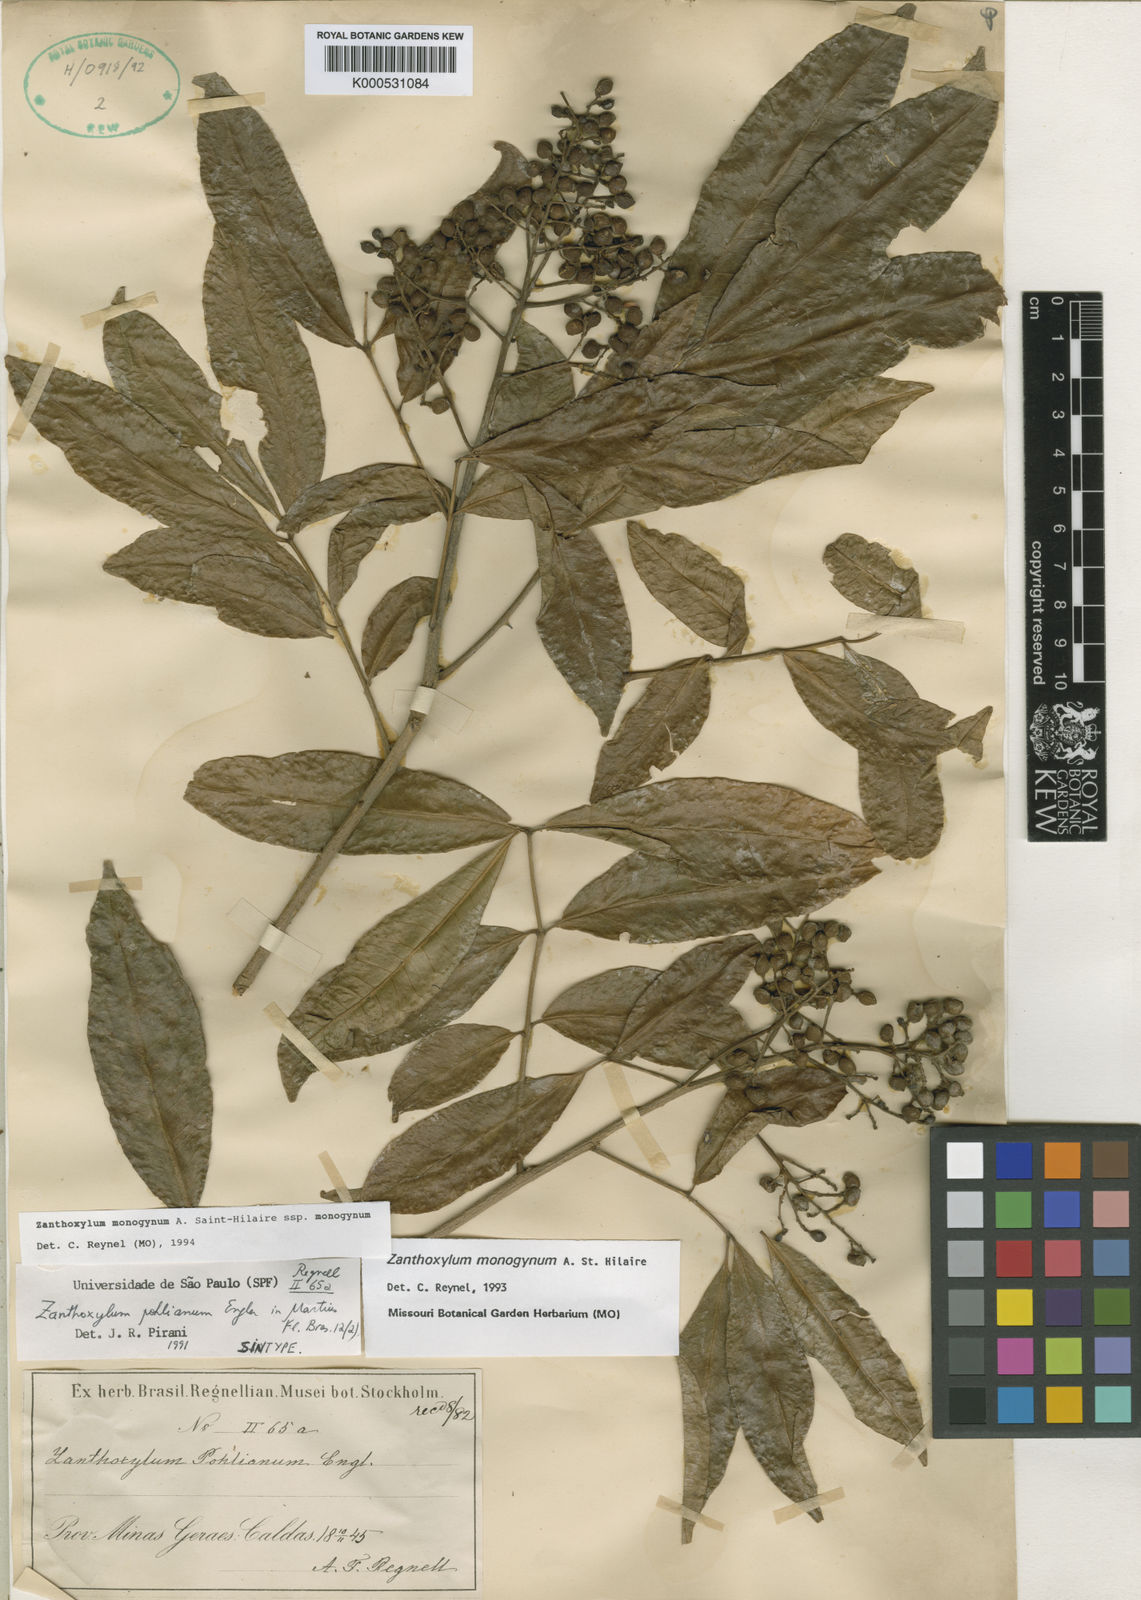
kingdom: Plantae
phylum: Tracheophyta
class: Magnoliopsida
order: Sapindales
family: Rutaceae
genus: Zanthoxylum
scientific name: Zanthoxylum monogynum
